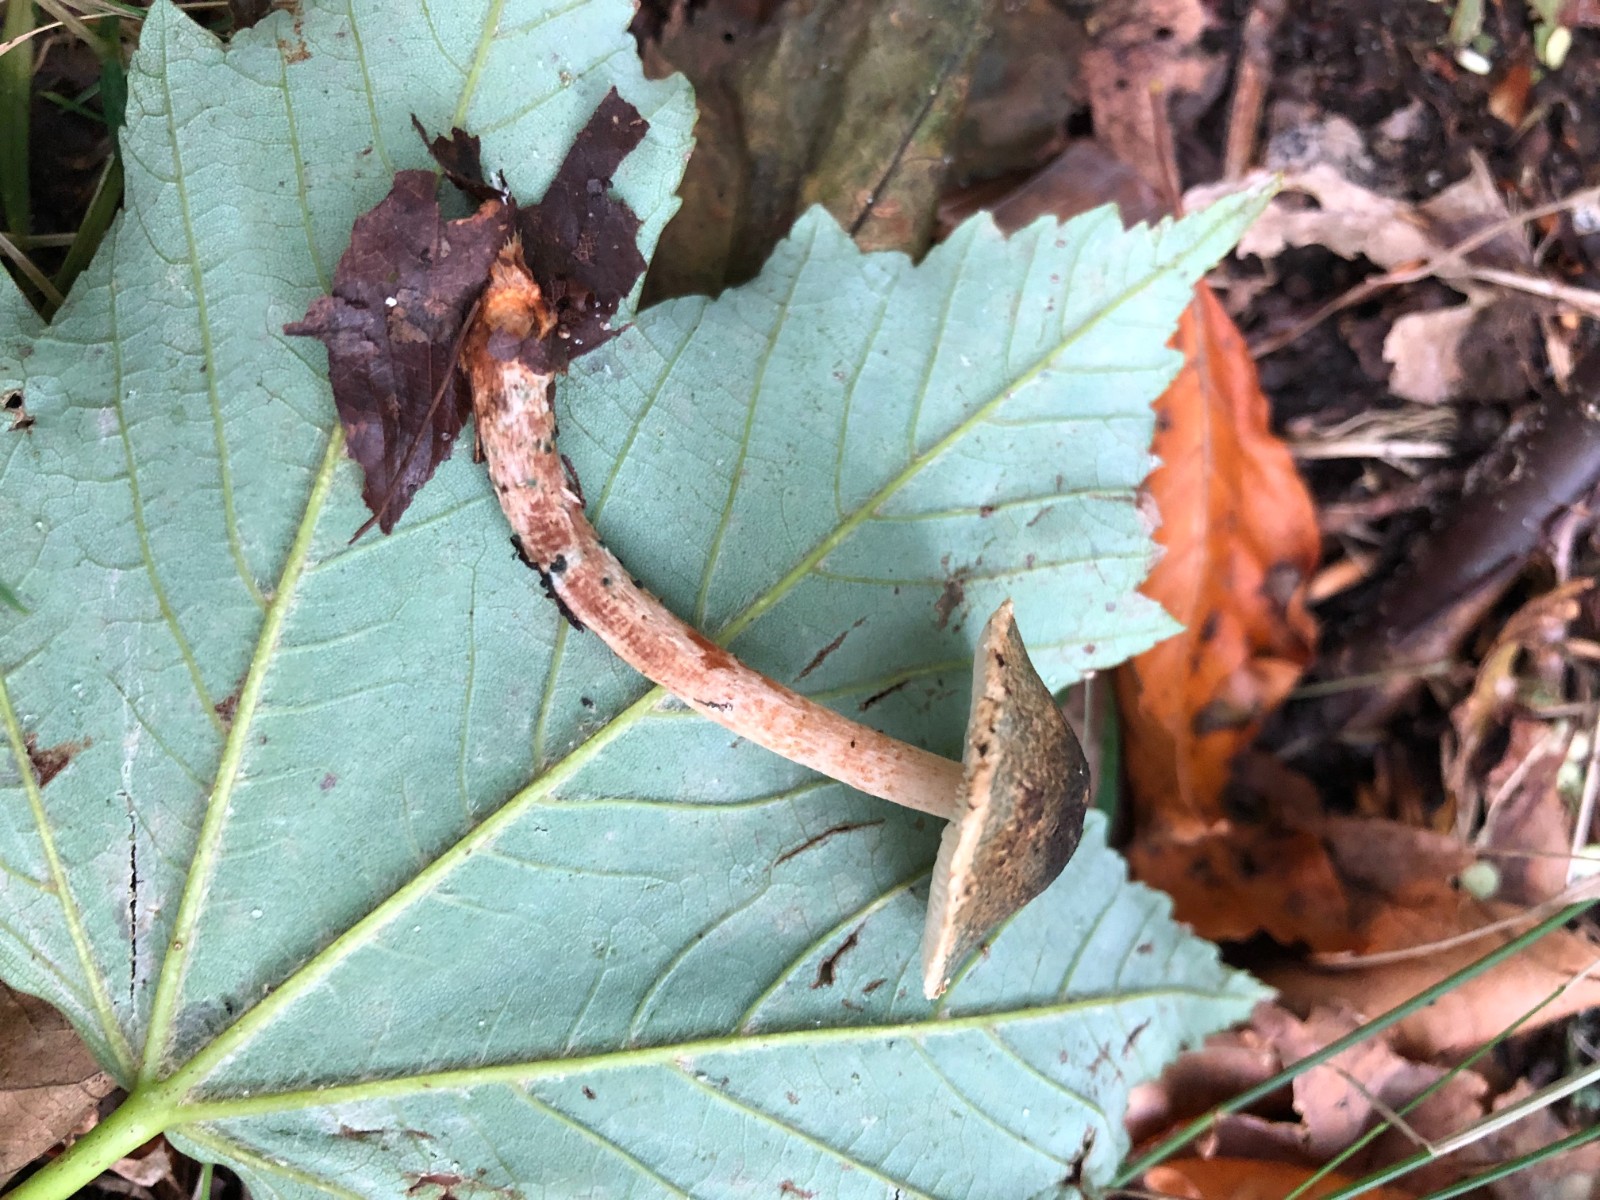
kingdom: Fungi
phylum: Basidiomycota
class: Agaricomycetes
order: Agaricales
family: Agaricaceae
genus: Lepiota
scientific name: Lepiota grangei
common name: grønskællet parasolhat
